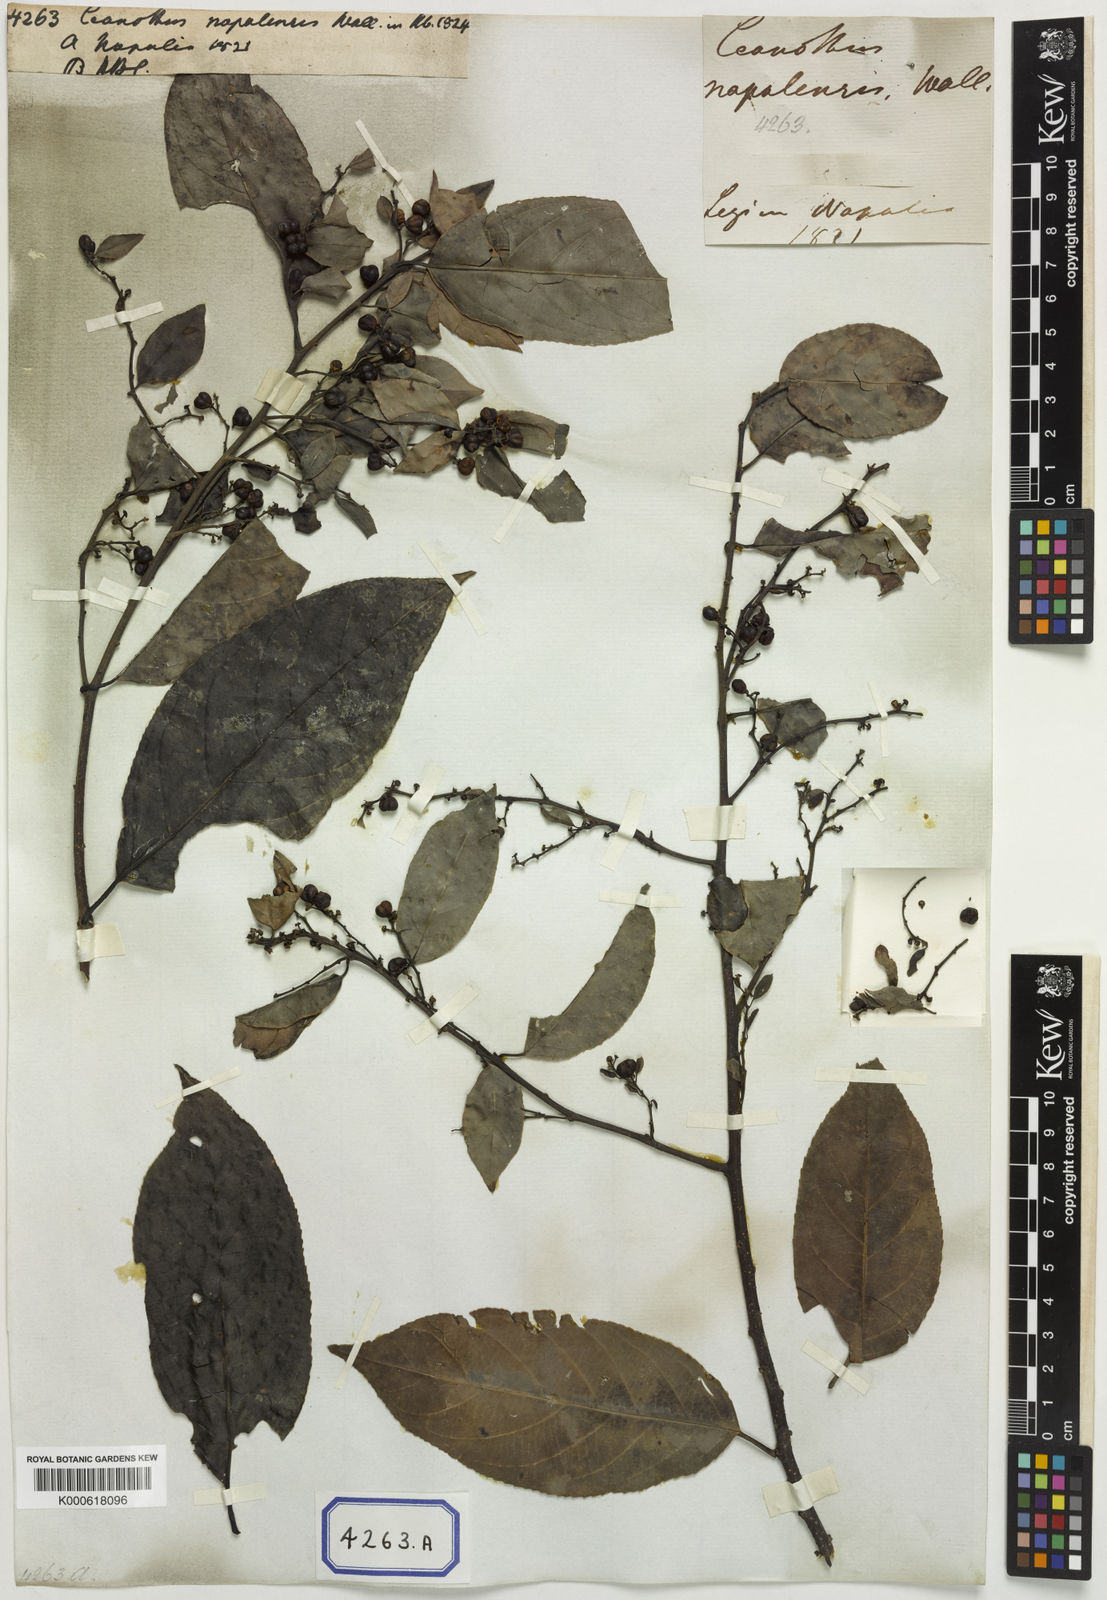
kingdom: Plantae
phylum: Tracheophyta
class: Magnoliopsida
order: Rosales
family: Rhamnaceae
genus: Rhamnus
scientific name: Rhamnus napalensis
